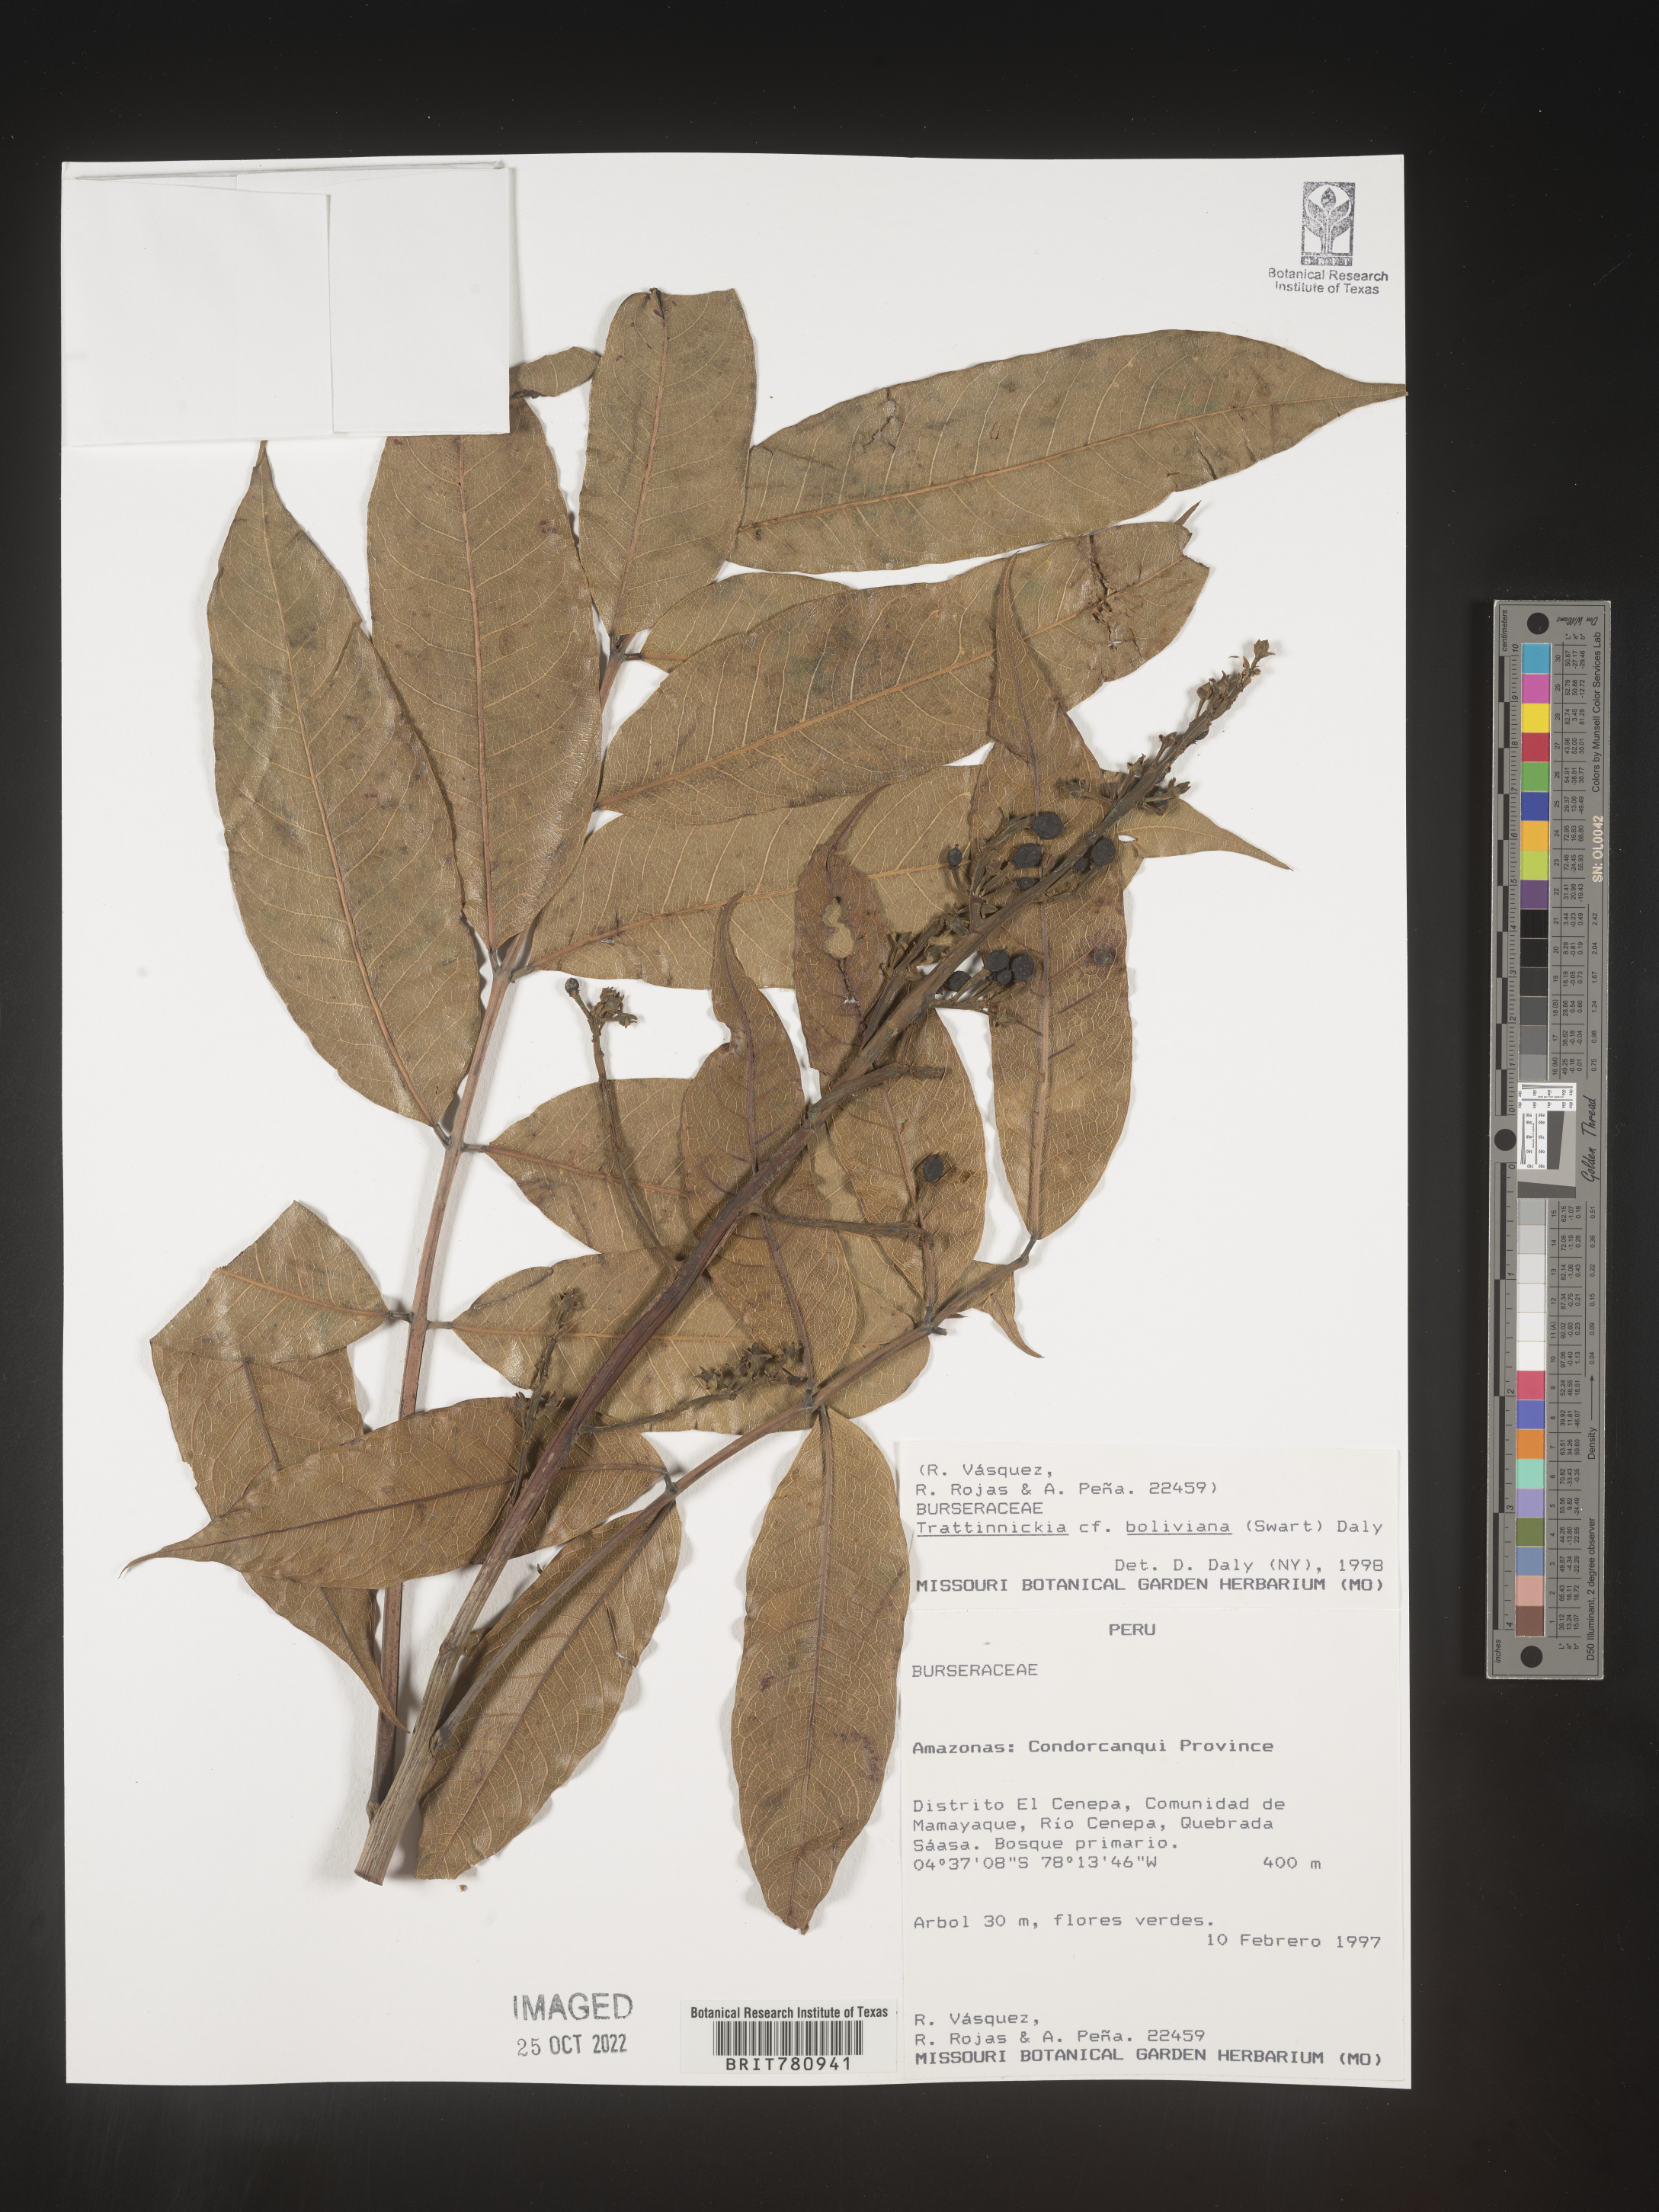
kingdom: Plantae
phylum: Tracheophyta
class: Magnoliopsida
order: Sapindales
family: Burseraceae
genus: Trattinnickia
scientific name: Trattinnickia
